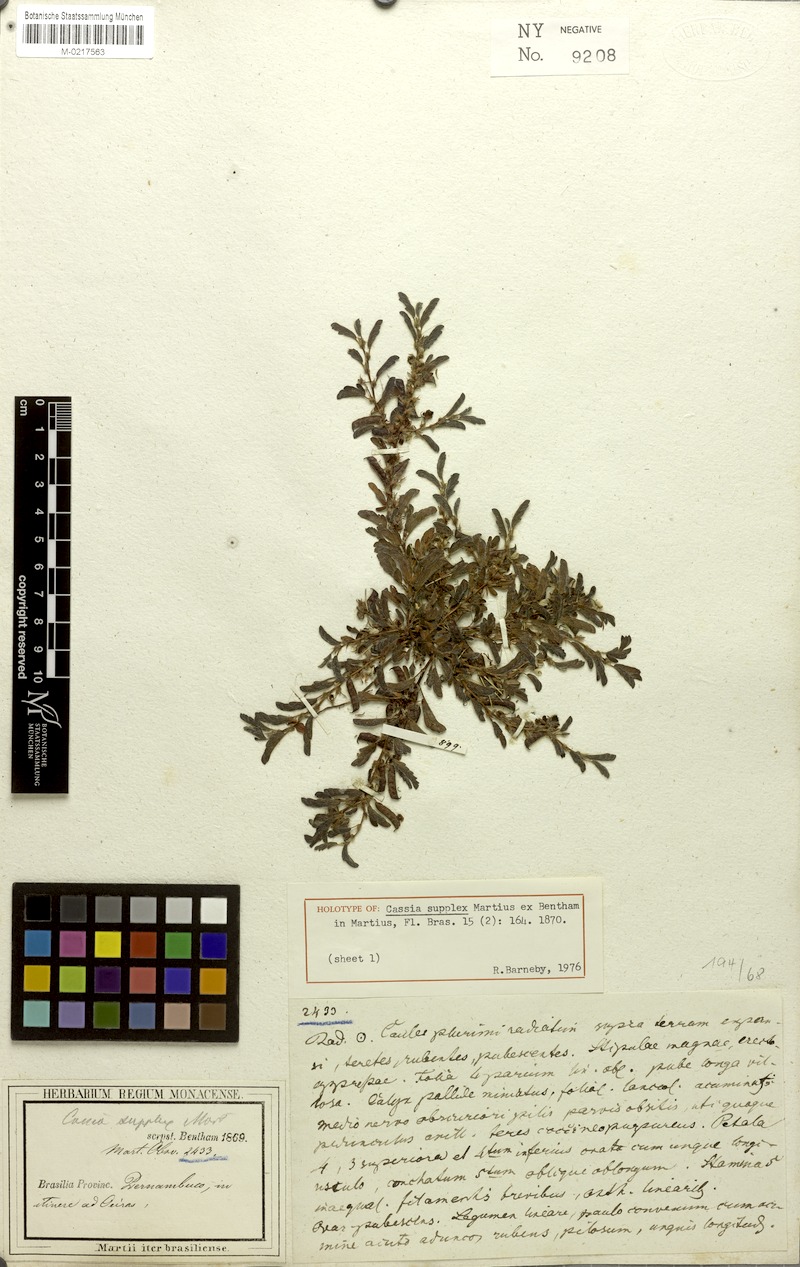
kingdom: Plantae
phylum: Tracheophyta
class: Magnoliopsida
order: Fabales
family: Fabaceae
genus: Chamaecrista
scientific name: Chamaecrista supplex
